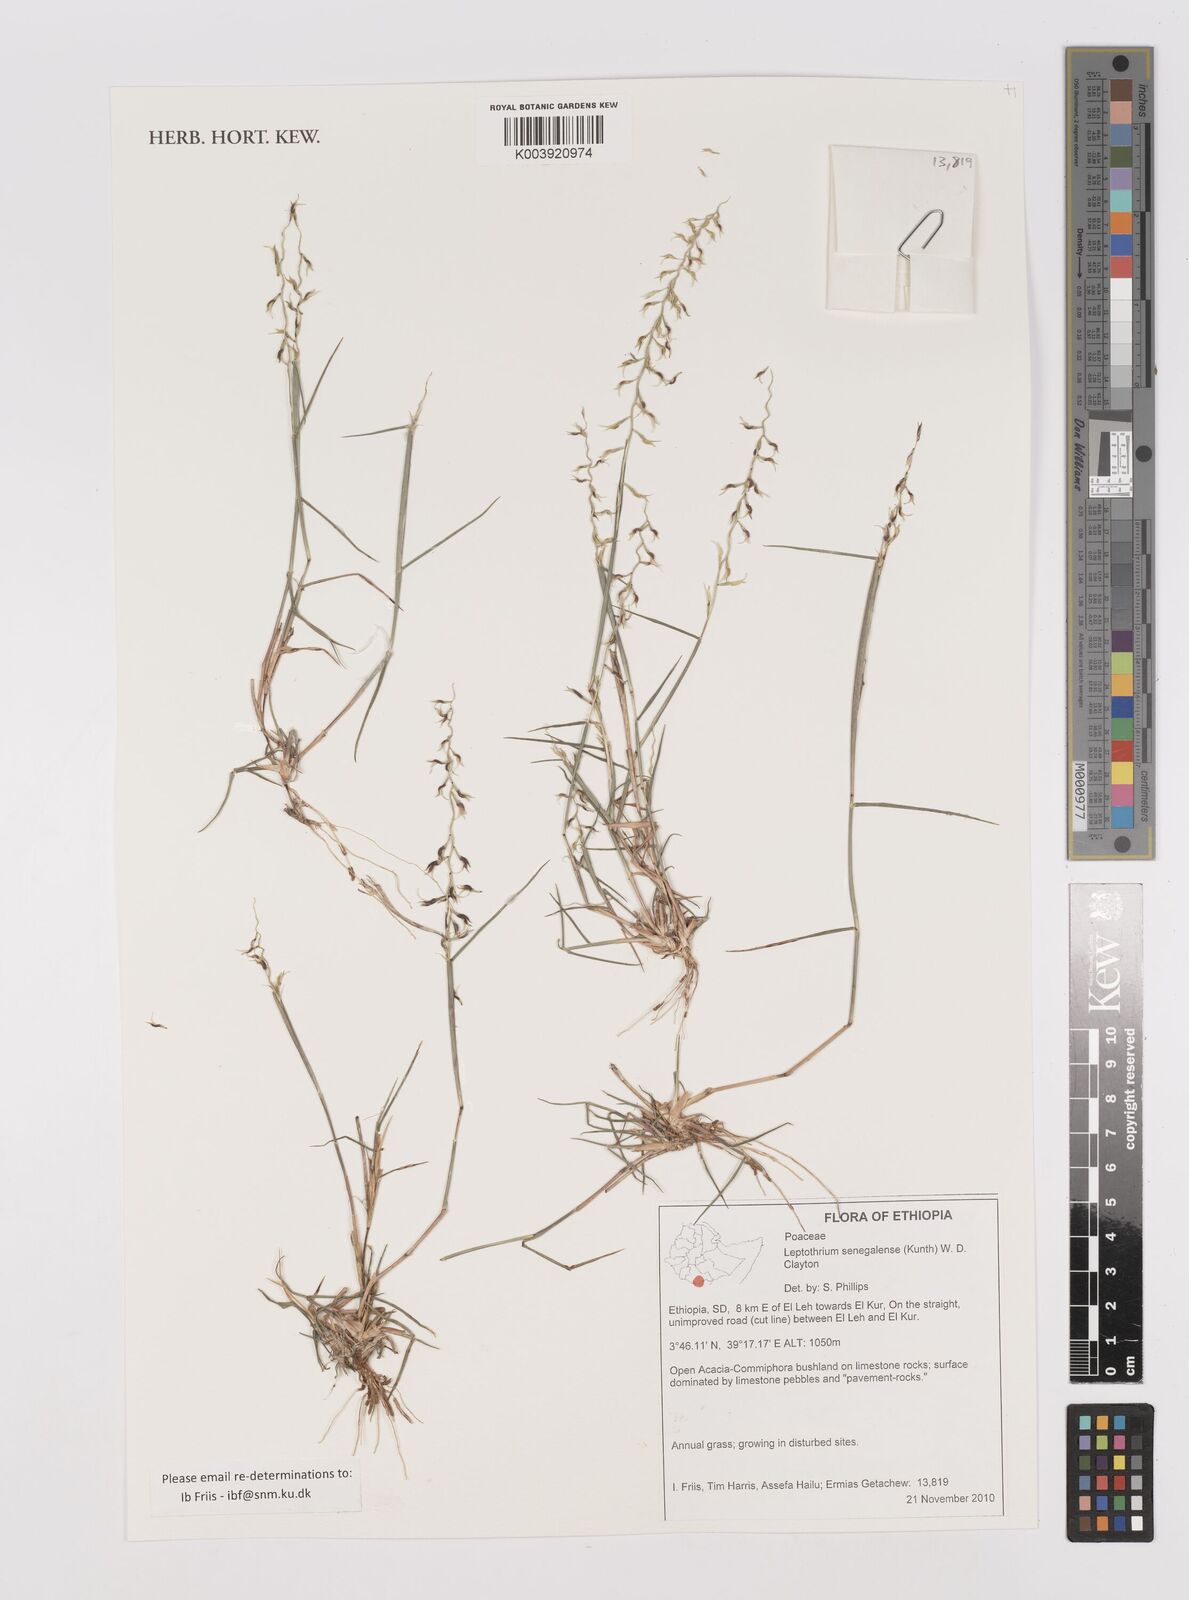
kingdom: Plantae
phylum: Tracheophyta
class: Liliopsida
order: Poales
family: Poaceae
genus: Leptothrium
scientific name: Leptothrium senegalense
